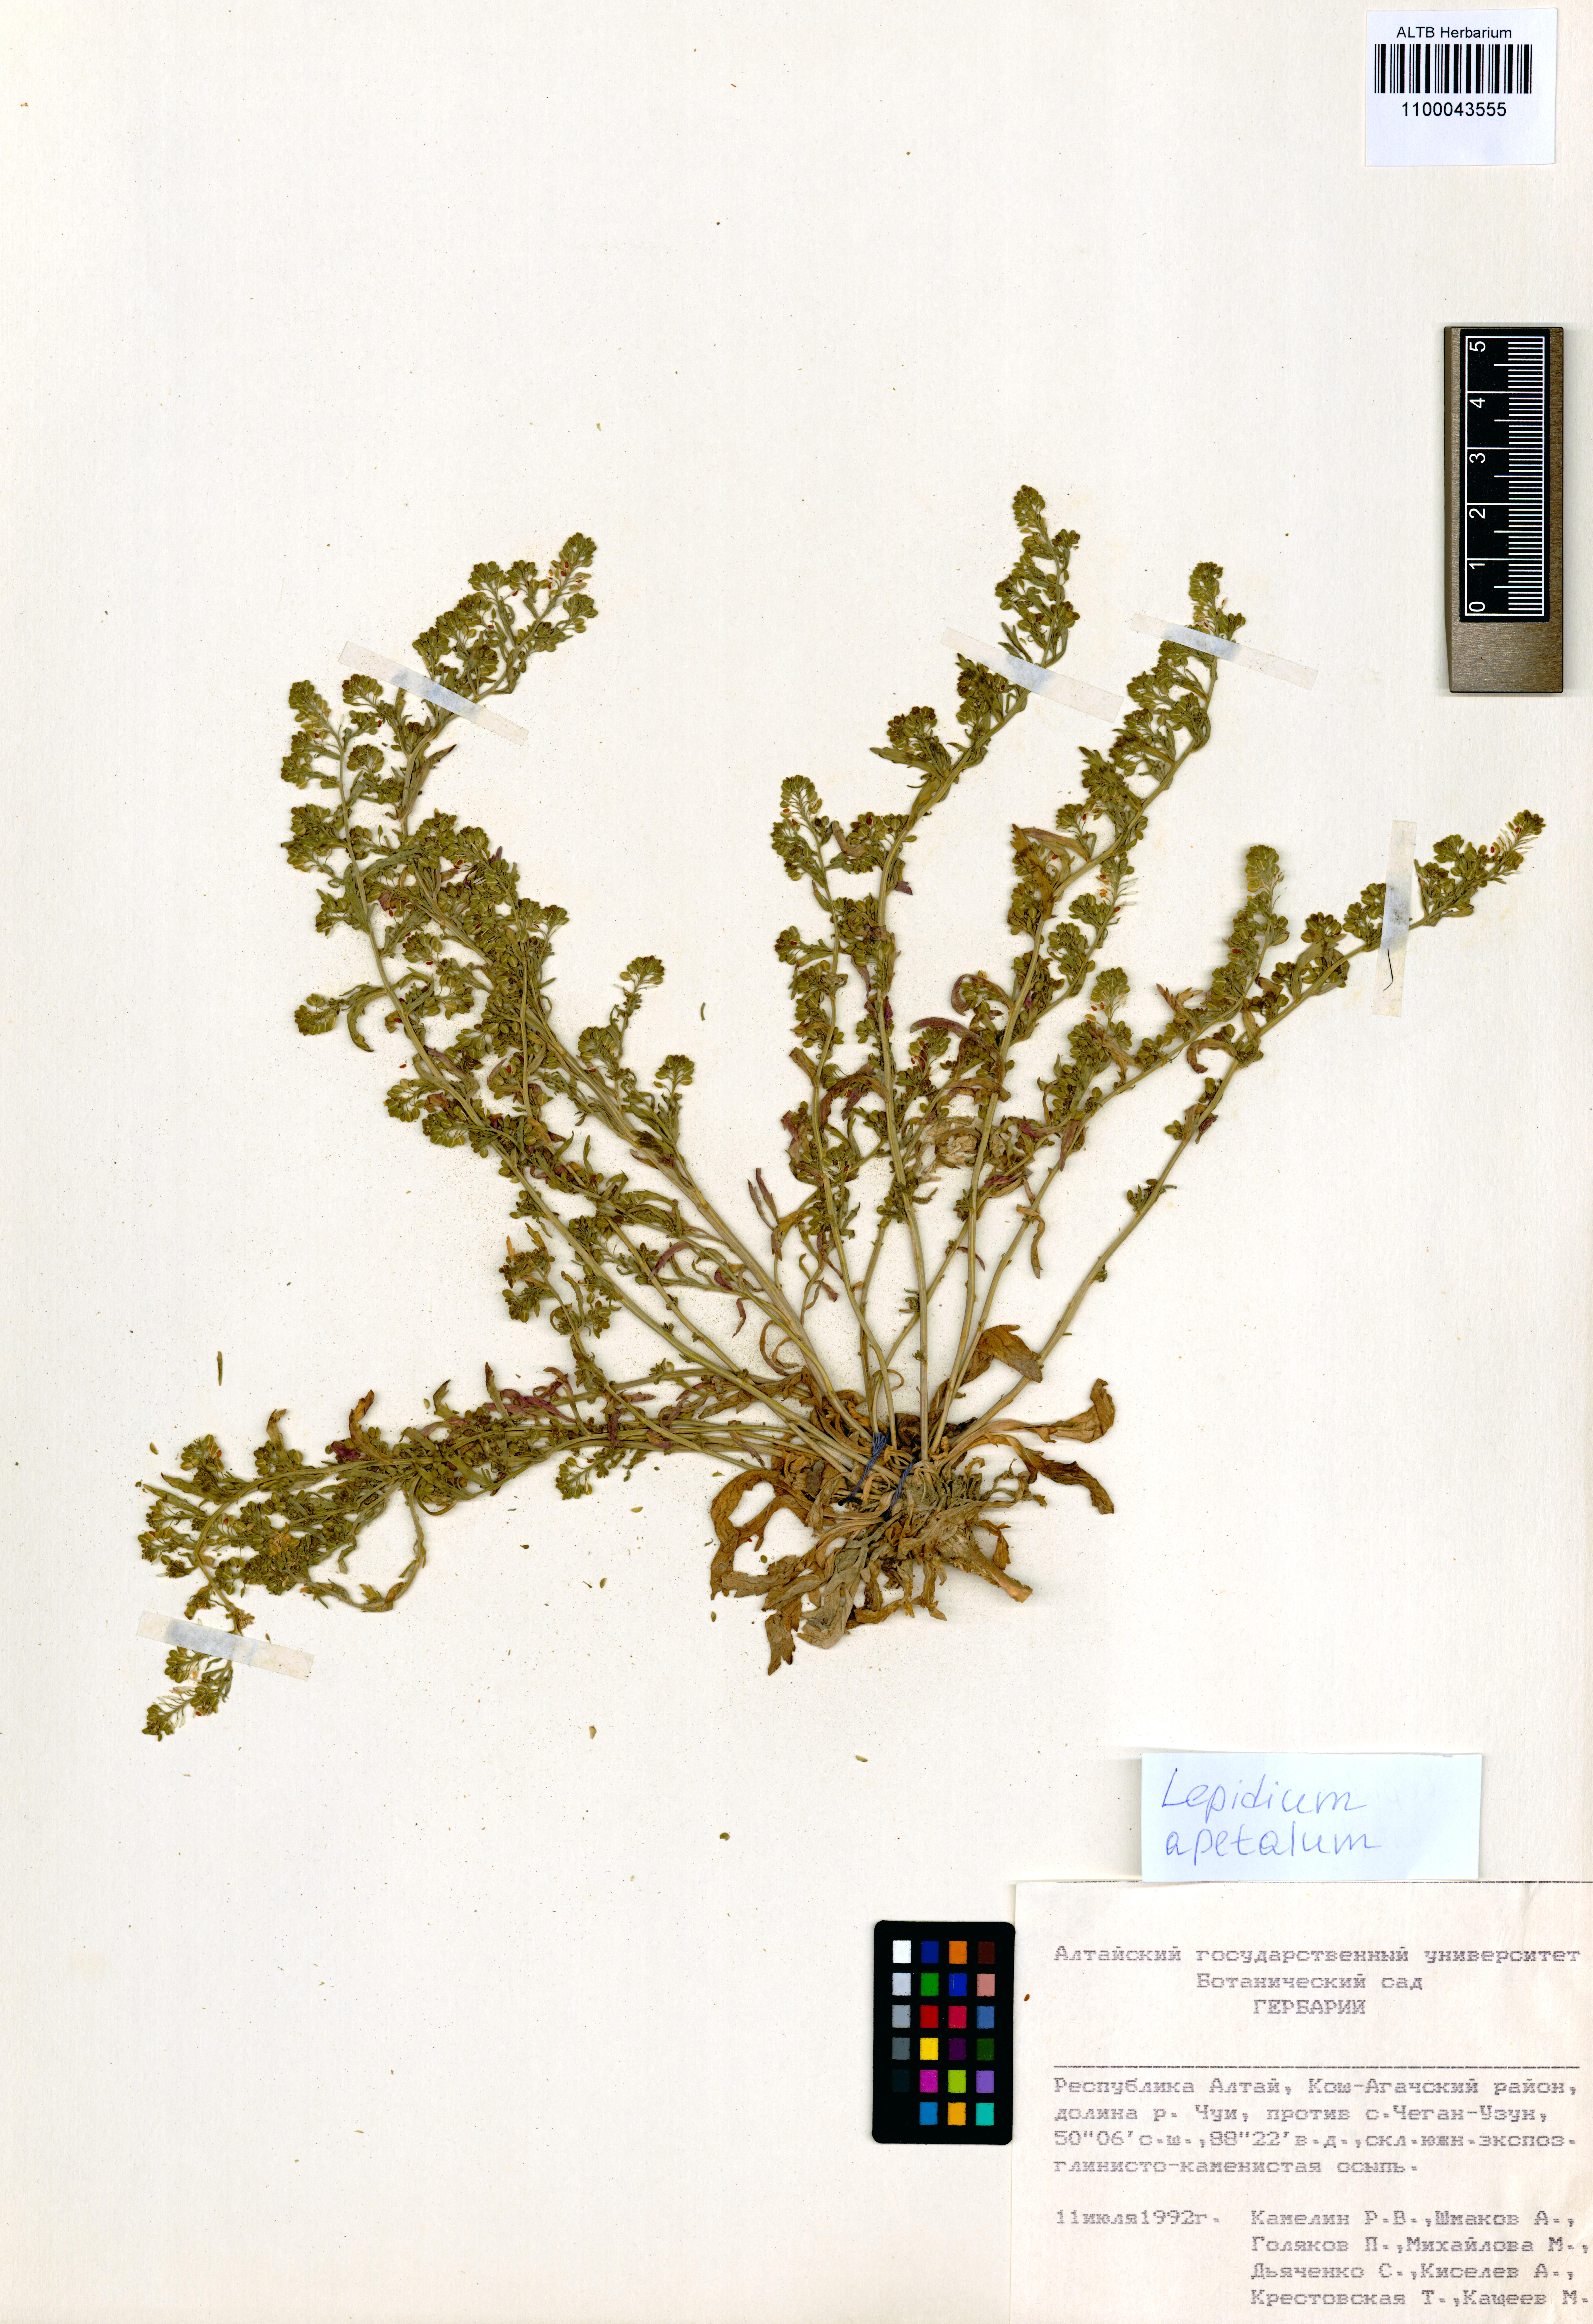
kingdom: Plantae
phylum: Tracheophyta
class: Magnoliopsida
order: Brassicales
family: Brassicaceae
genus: Lepidium
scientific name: Lepidium apetalum
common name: Pepperweed
